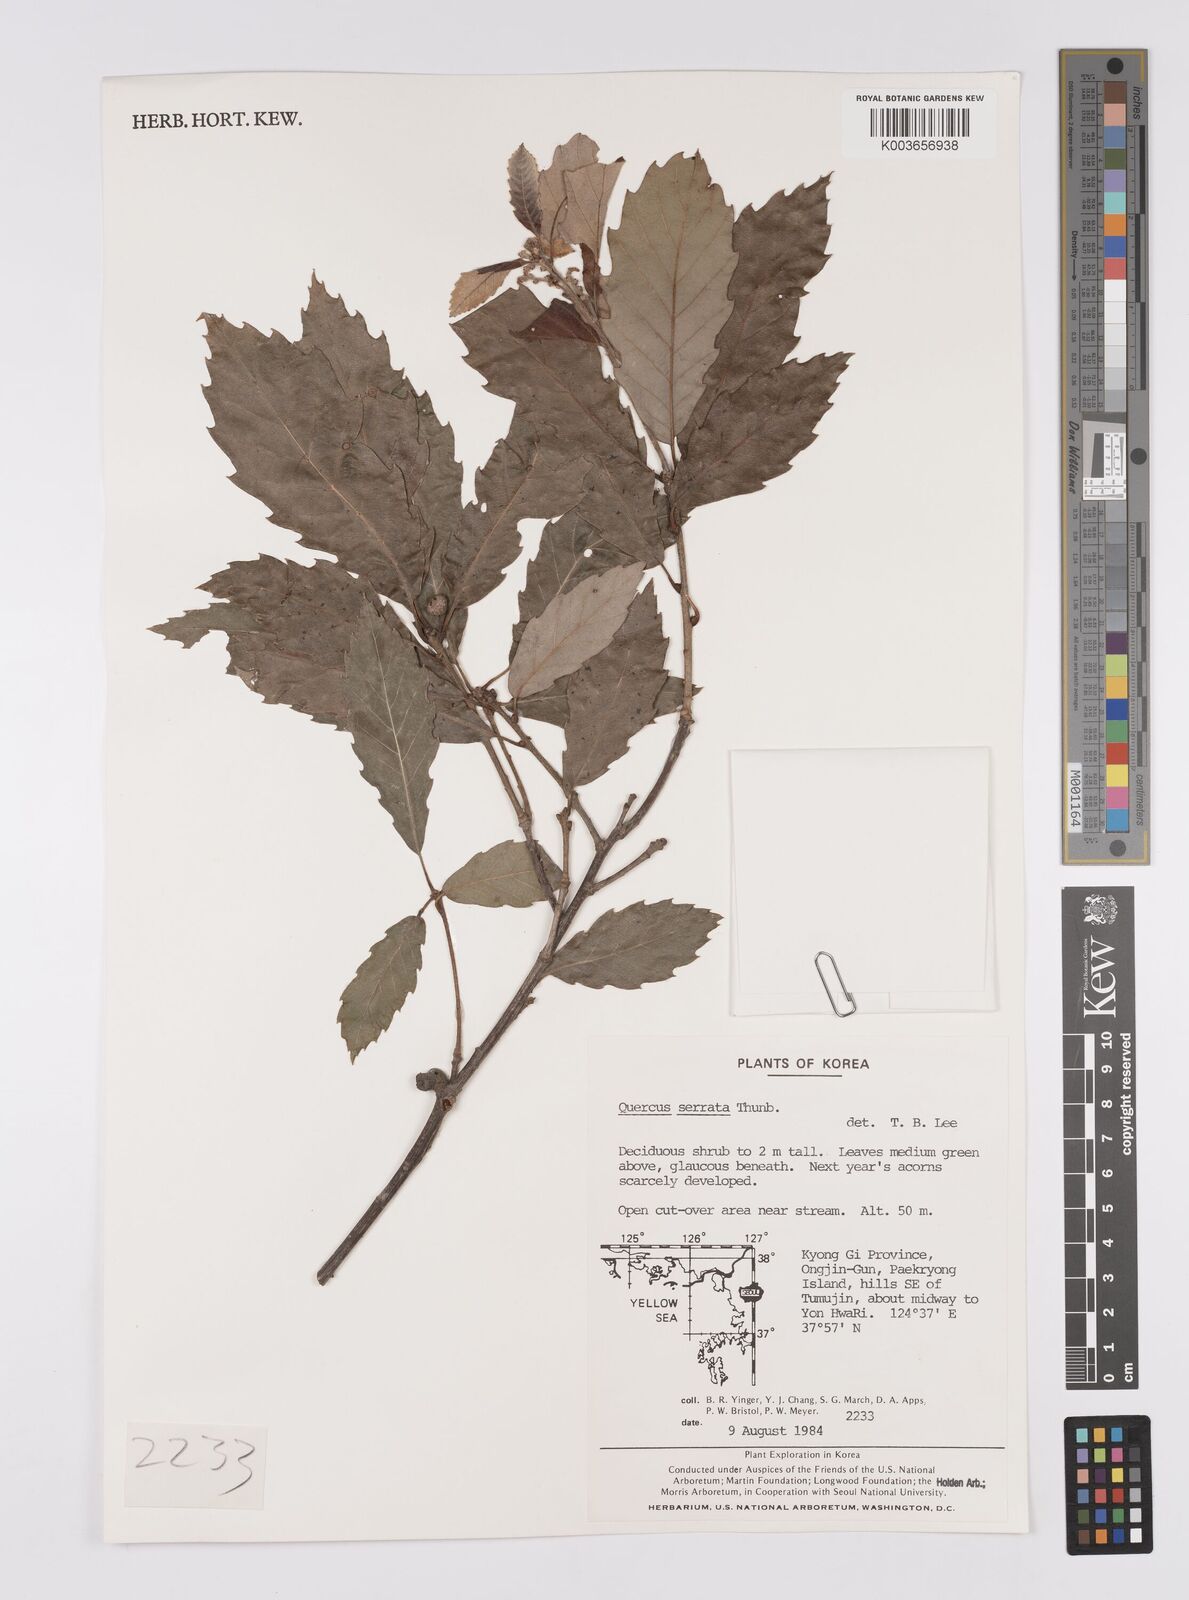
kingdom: Plantae
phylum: Tracheophyta
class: Magnoliopsida
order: Fagales
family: Fagaceae
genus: Quercus
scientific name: Quercus serrata
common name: Bao li
